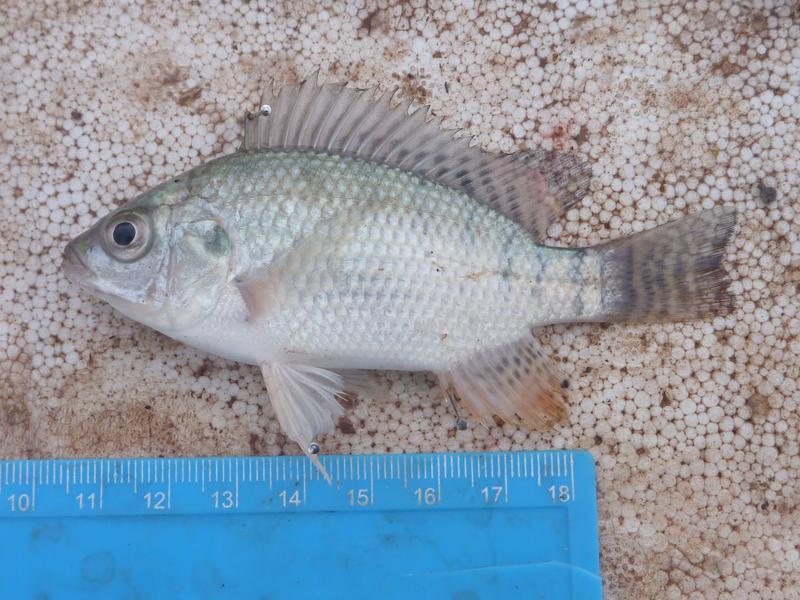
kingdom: Animalia
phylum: Chordata
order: Perciformes
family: Cichlidae
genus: Oreochromis
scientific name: Oreochromis niloticus
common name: Nile tilapia
